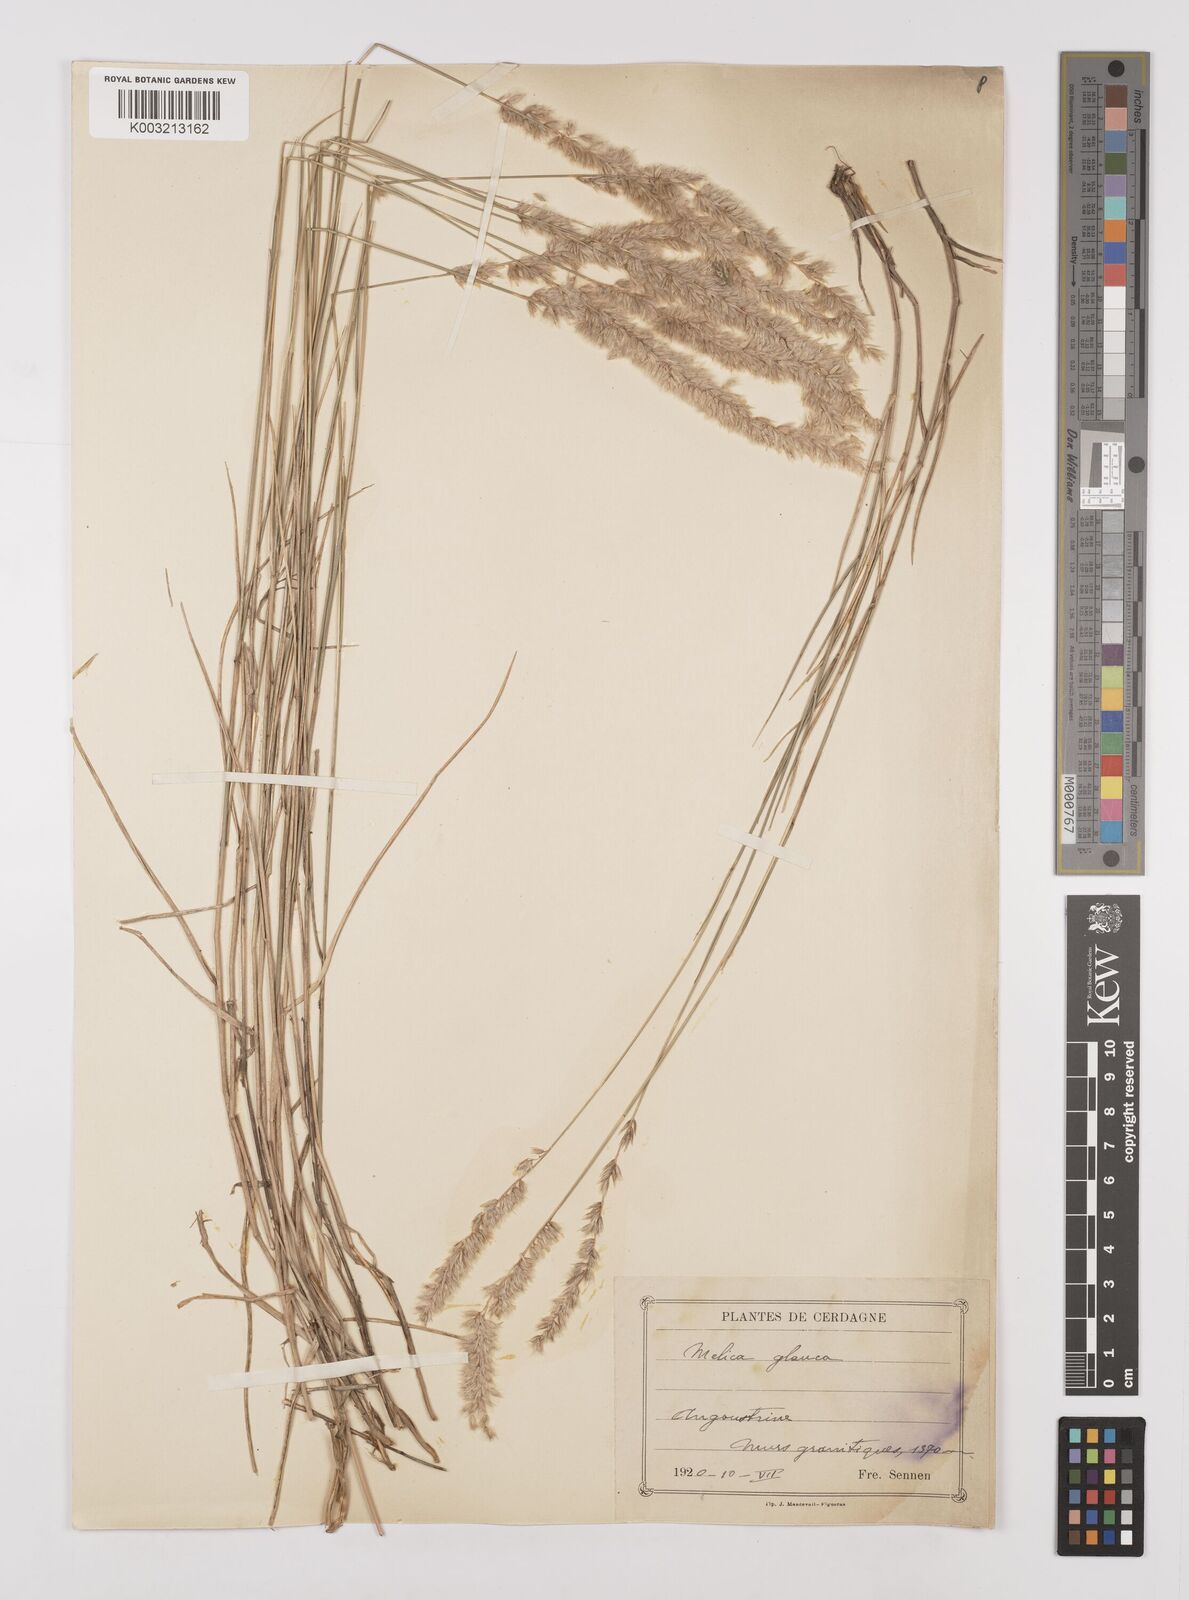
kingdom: Plantae
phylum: Tracheophyta
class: Liliopsida
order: Poales
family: Poaceae
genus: Melica
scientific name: Melica ciliata
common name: Hairy melicgrass
